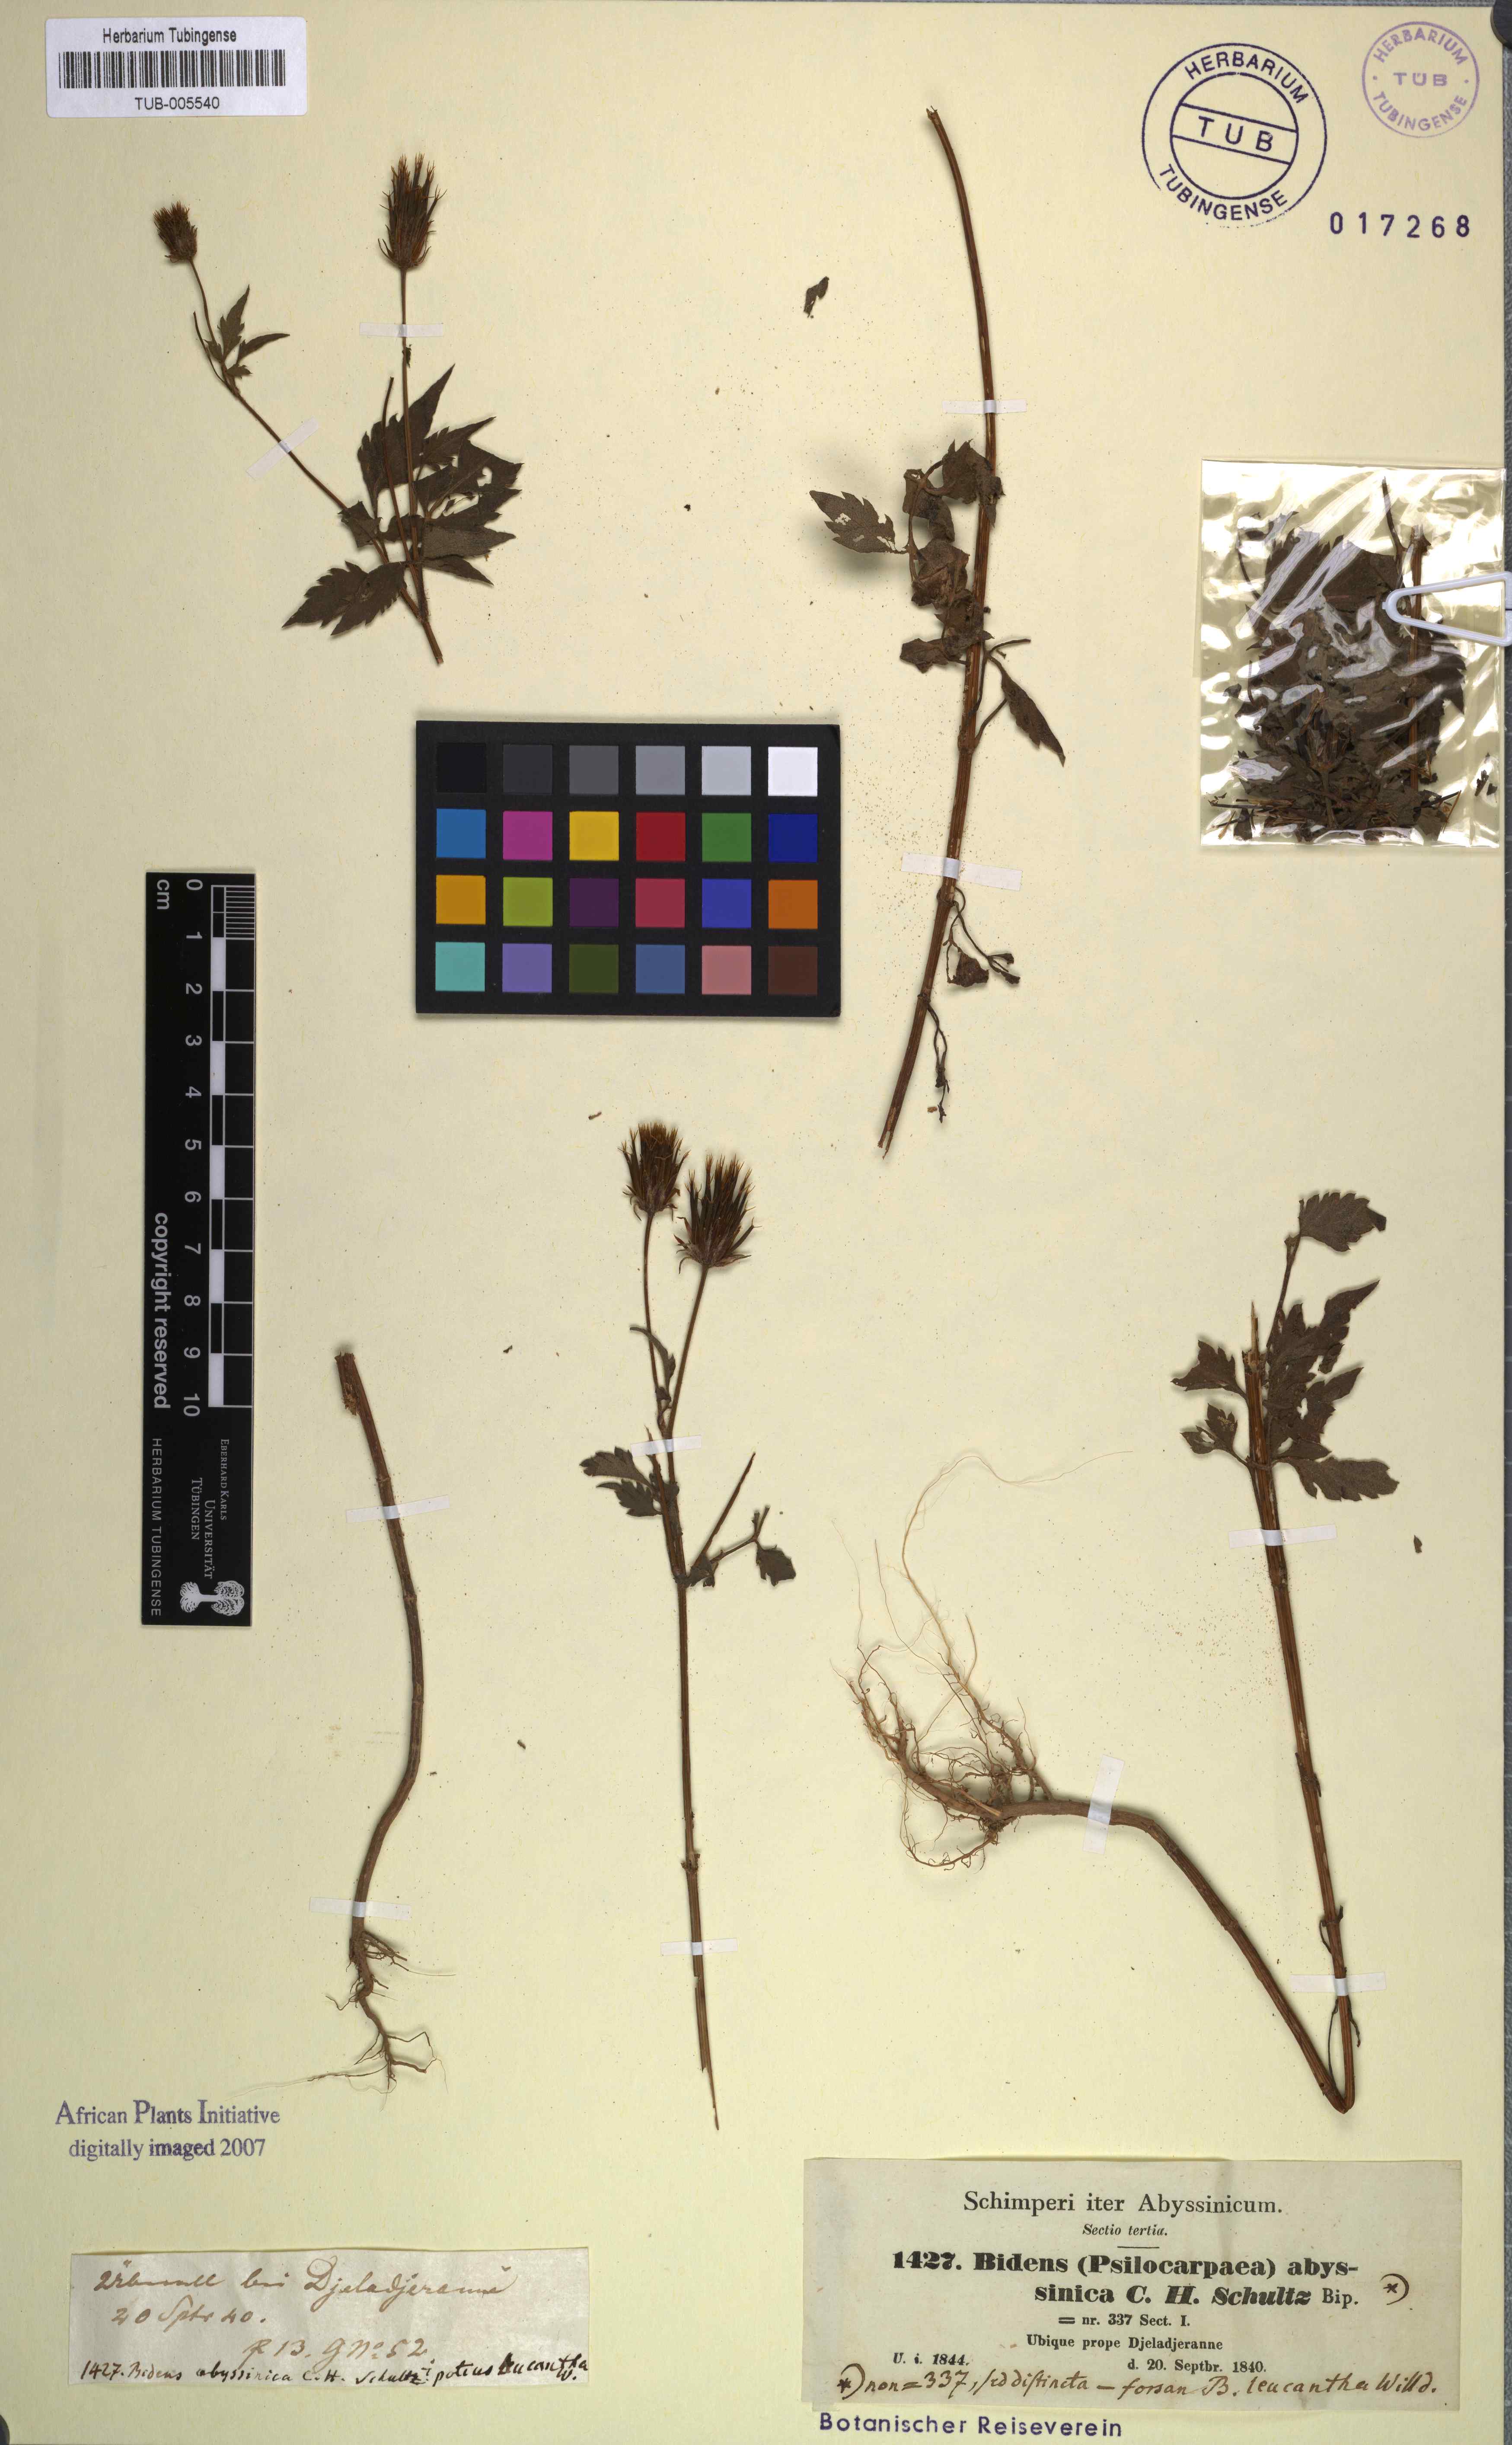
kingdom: Plantae
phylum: Tracheophyta
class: Magnoliopsida
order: Asterales
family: Asteraceae
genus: Bidens
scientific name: Bidens biternata
